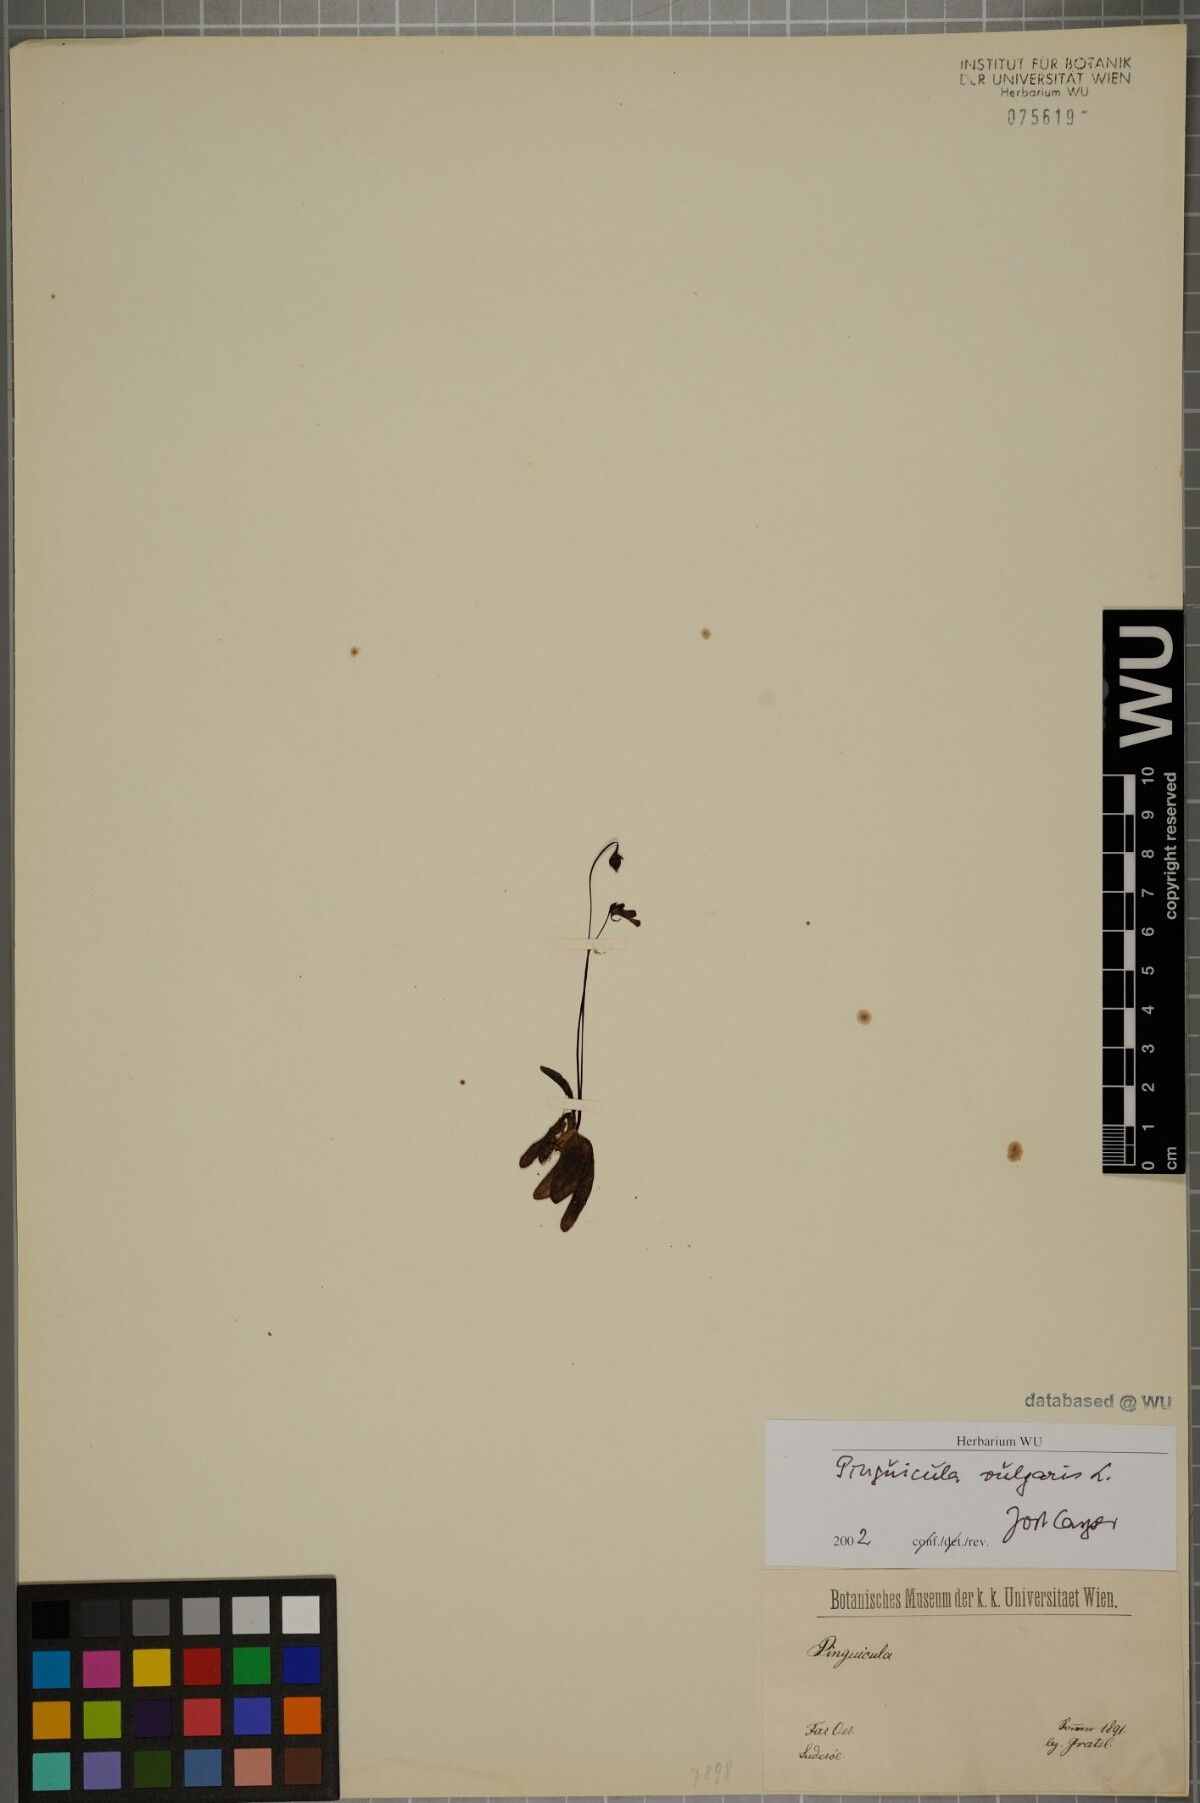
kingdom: Plantae
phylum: Tracheophyta
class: Magnoliopsida
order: Lamiales
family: Lentibulariaceae
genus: Pinguicula
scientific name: Pinguicula vulgaris
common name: Common butterwort
